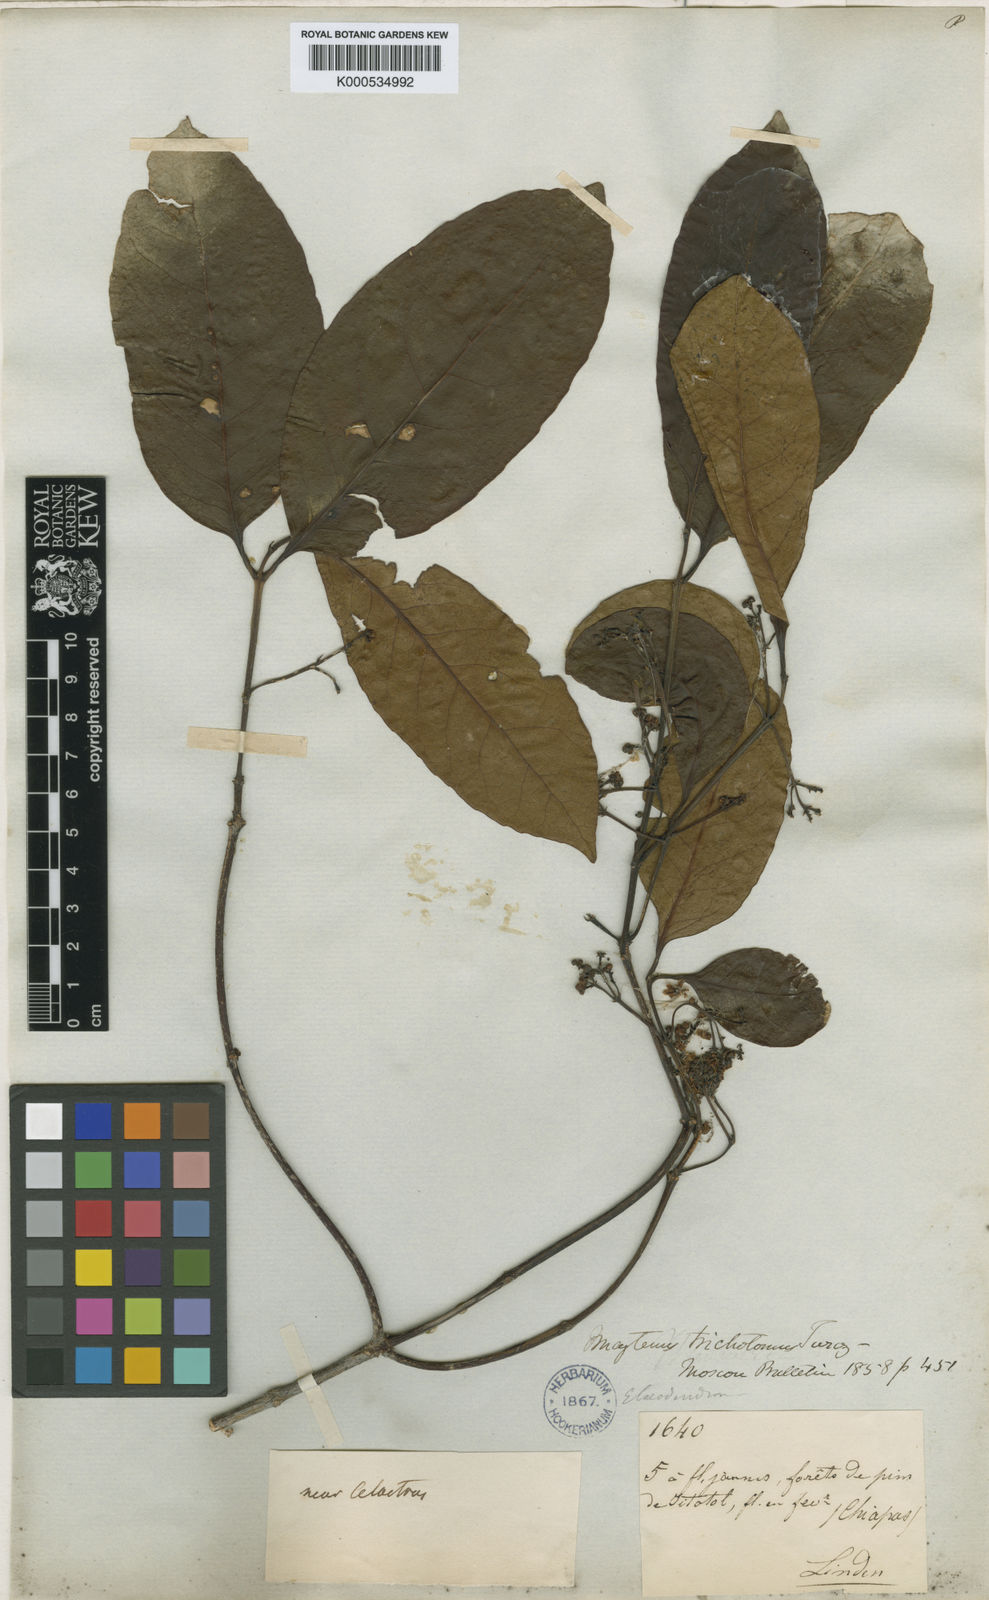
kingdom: Plantae
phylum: Tracheophyta
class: Magnoliopsida
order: Celastrales
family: Celastraceae
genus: Elaeodendron
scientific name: Elaeodendron xylocarpum
